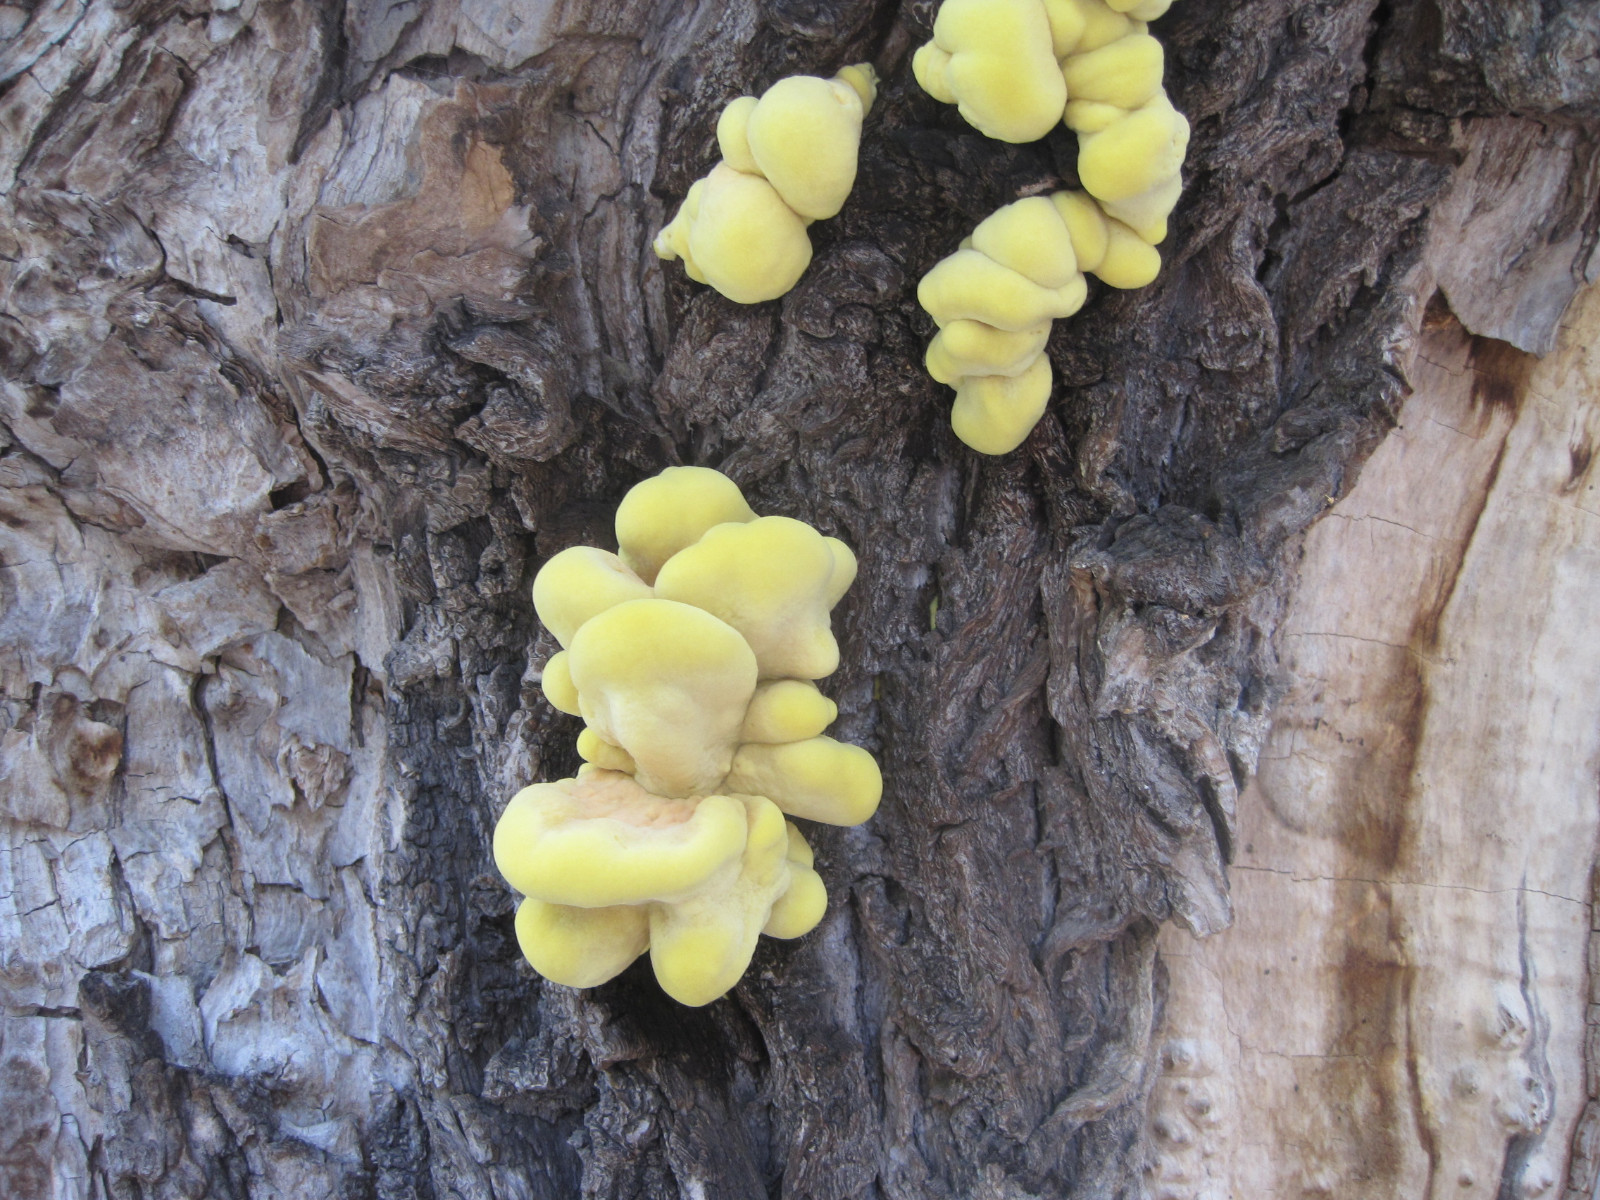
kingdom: Fungi
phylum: Basidiomycota
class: Agaricomycetes
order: Polyporales
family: Laetiporaceae
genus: Laetiporus
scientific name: Laetiporus sulphureus
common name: svovlporesvamp
